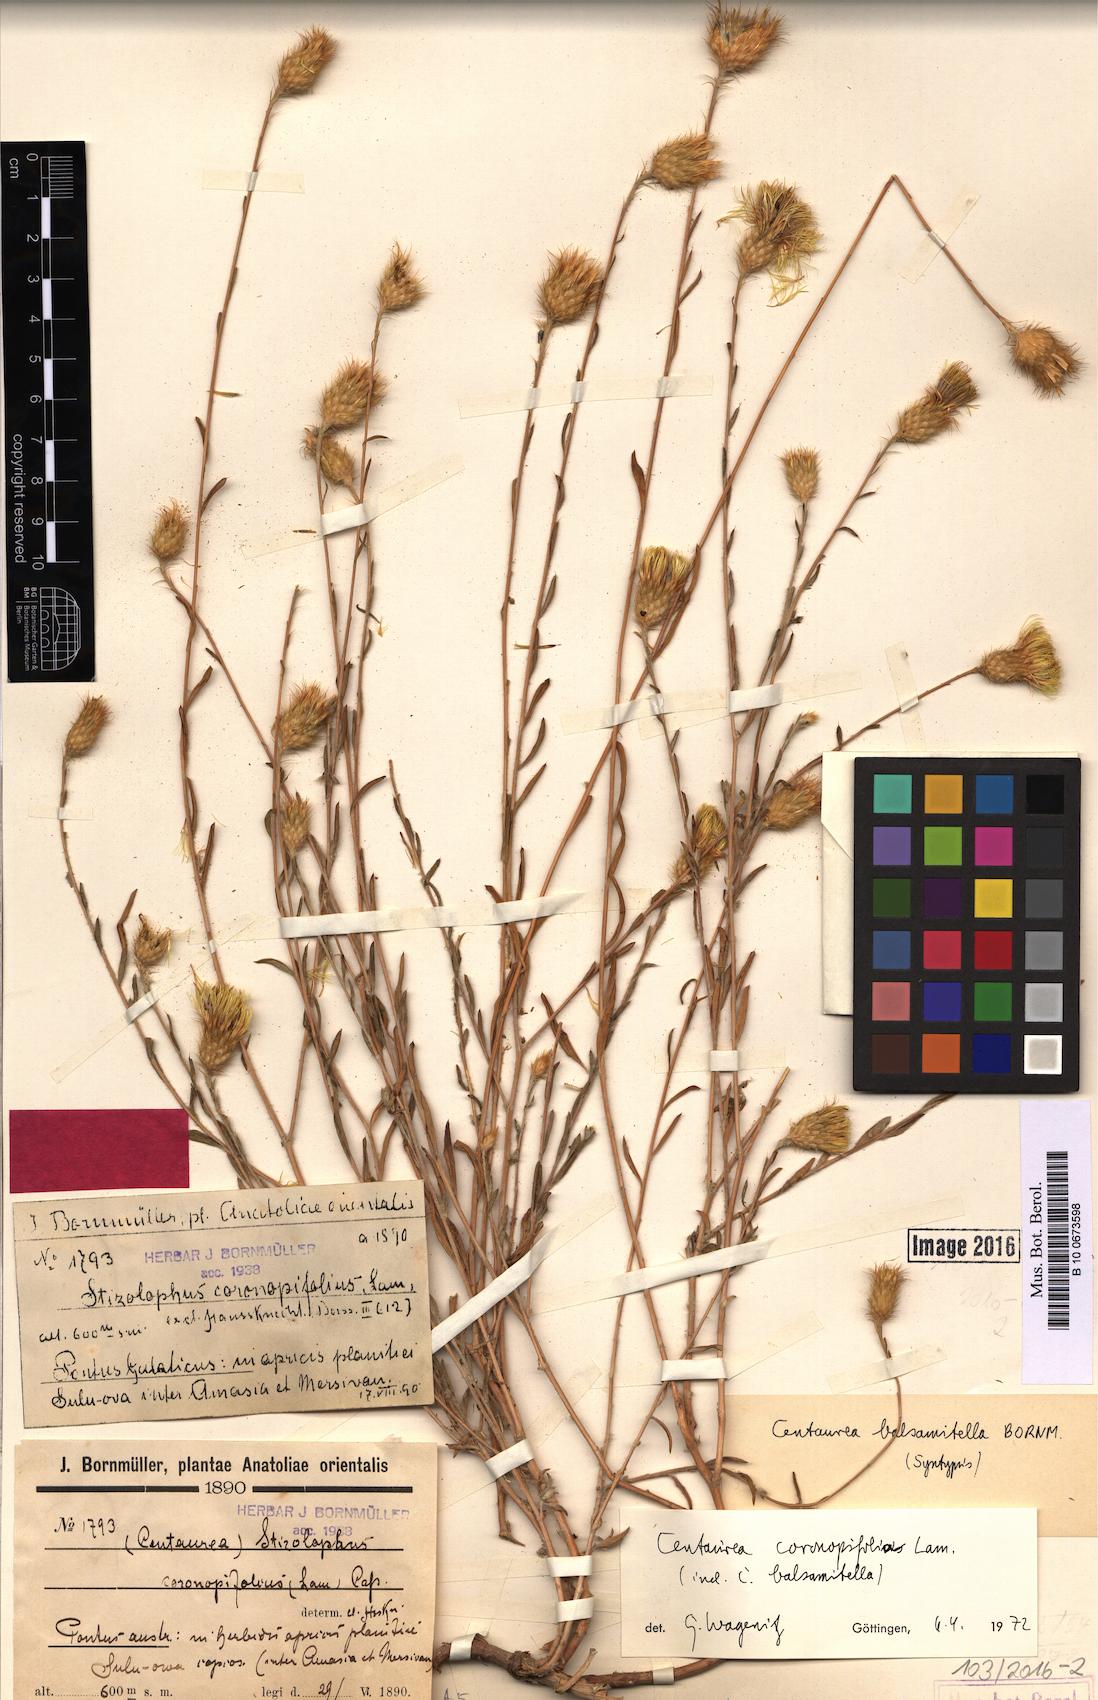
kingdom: Plantae
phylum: Tracheophyta
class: Magnoliopsida
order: Asterales
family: Asteraceae
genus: Stizolophus
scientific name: Stizolophus coronopifolius
